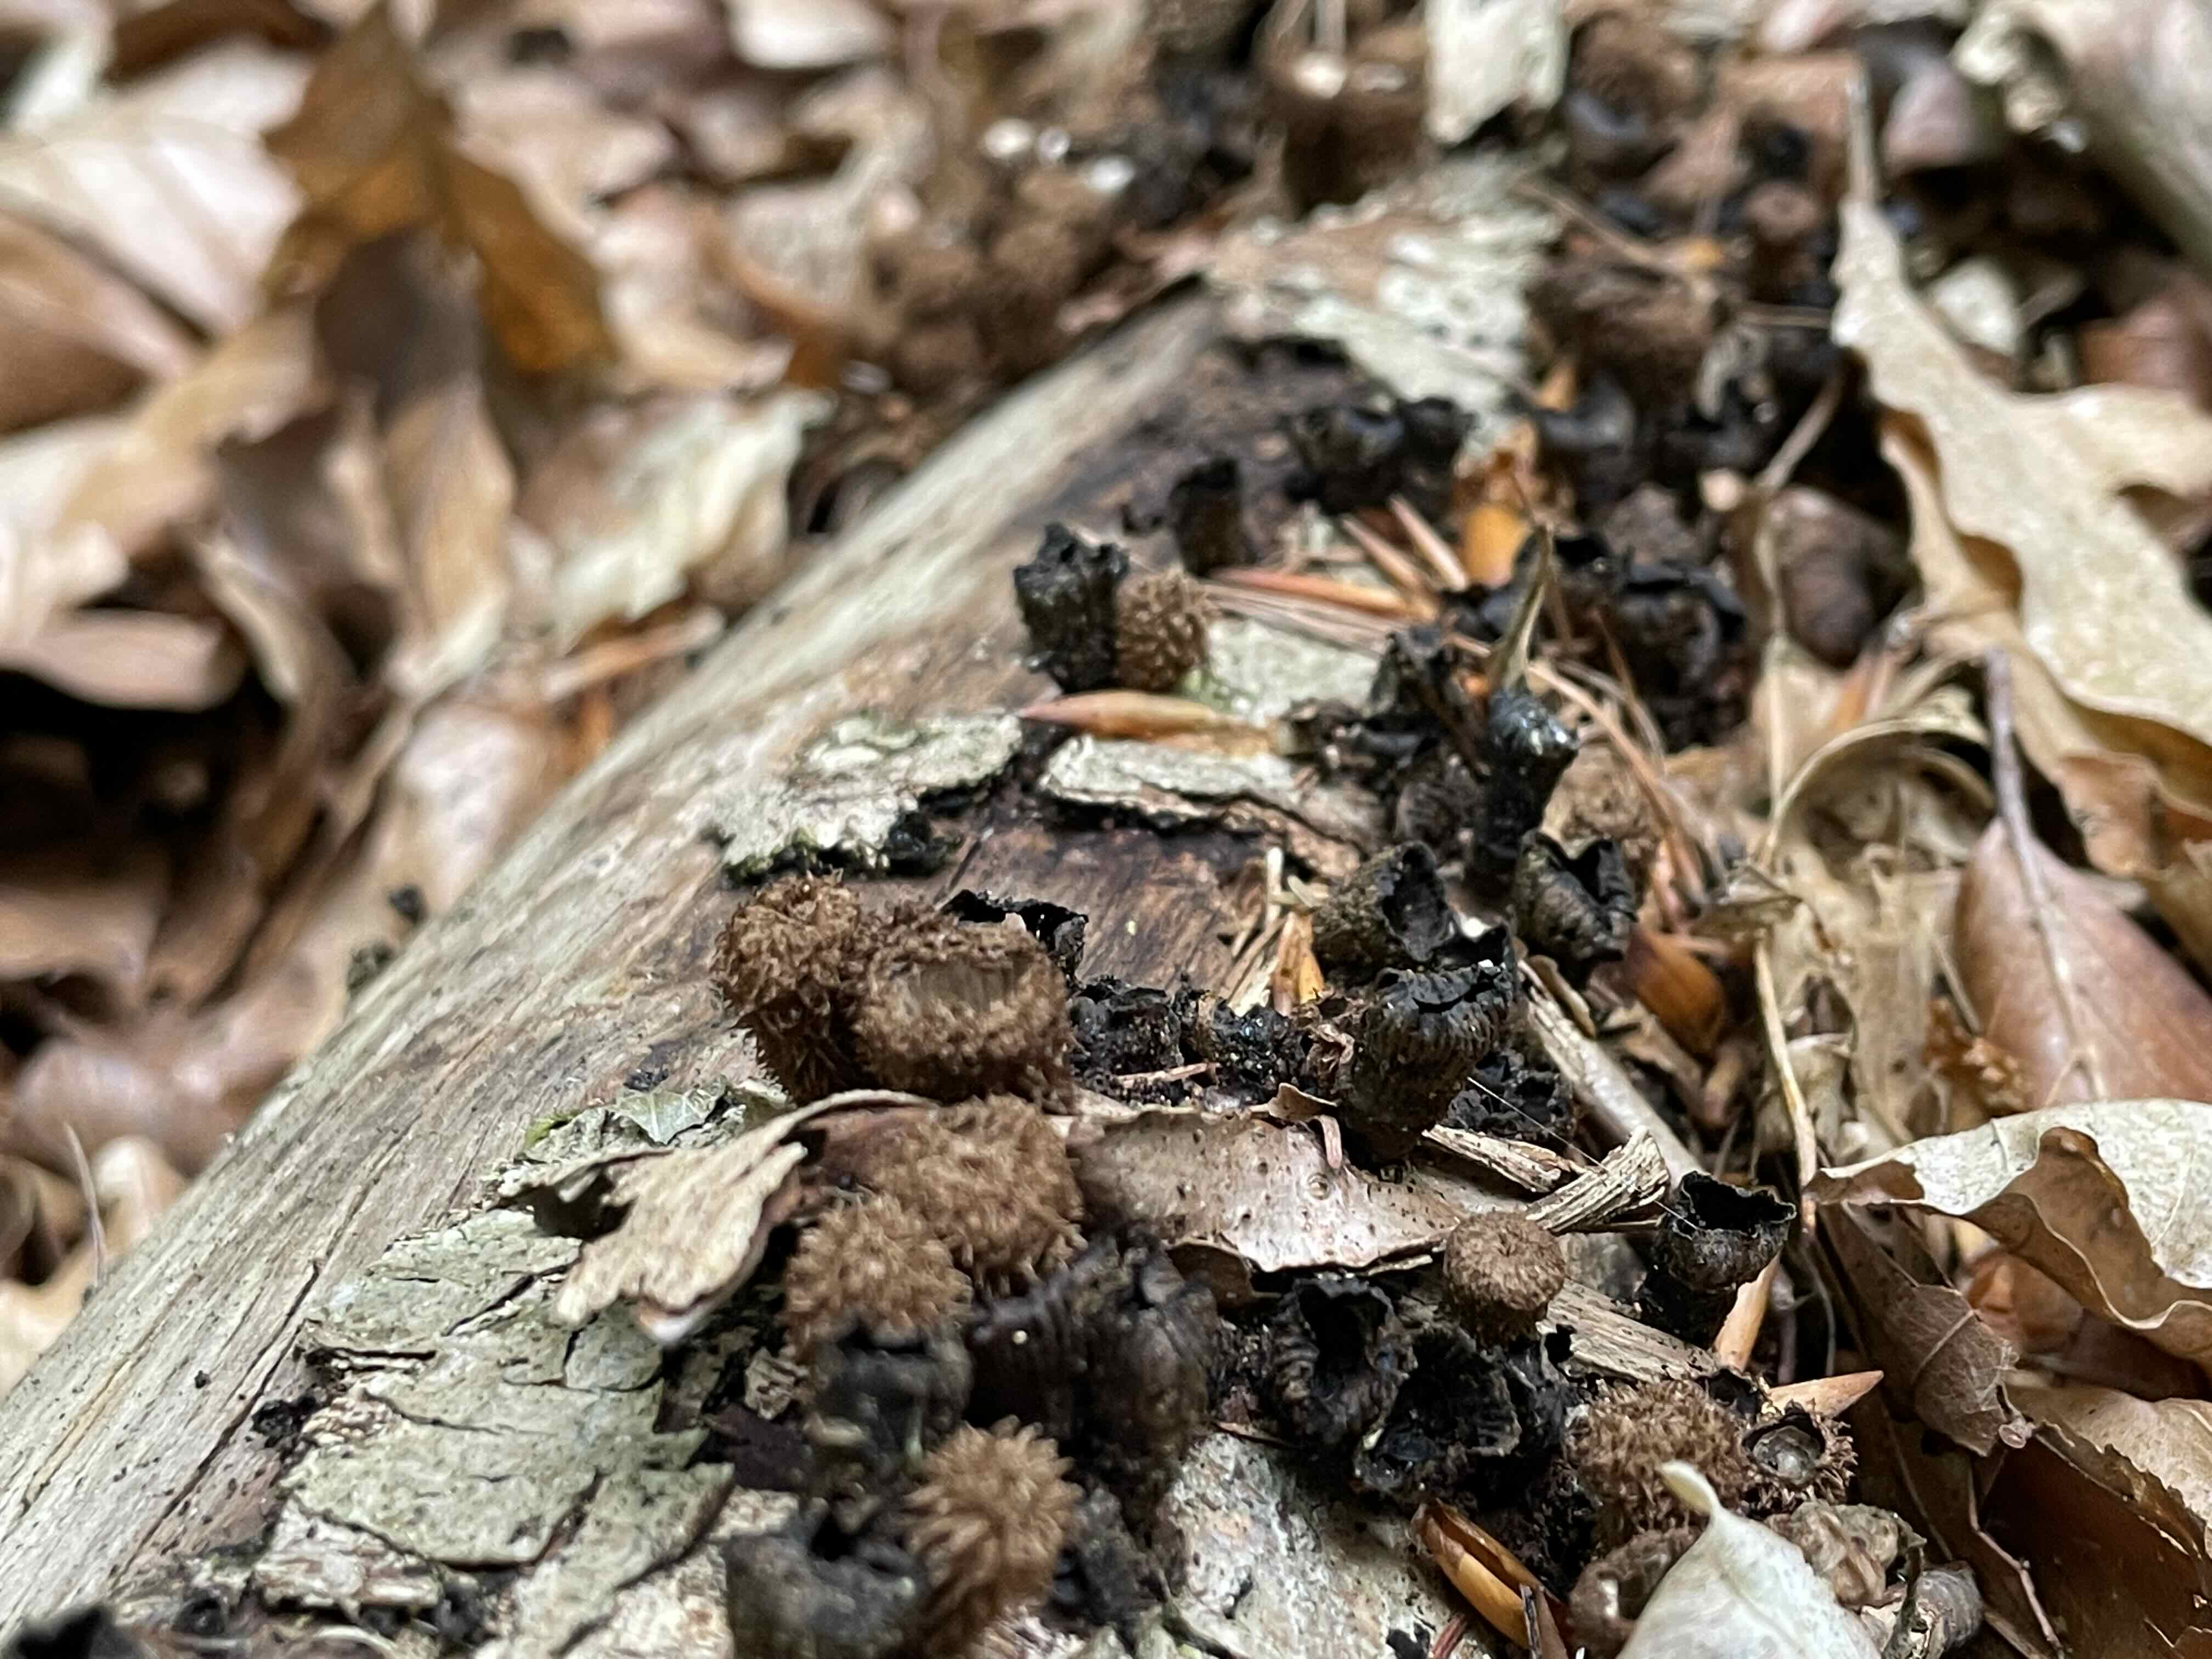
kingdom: Fungi
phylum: Basidiomycota
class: Agaricomycetes
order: Agaricales
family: Agaricaceae
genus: Cyathus
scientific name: Cyathus striatus
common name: stribet redesvamp
